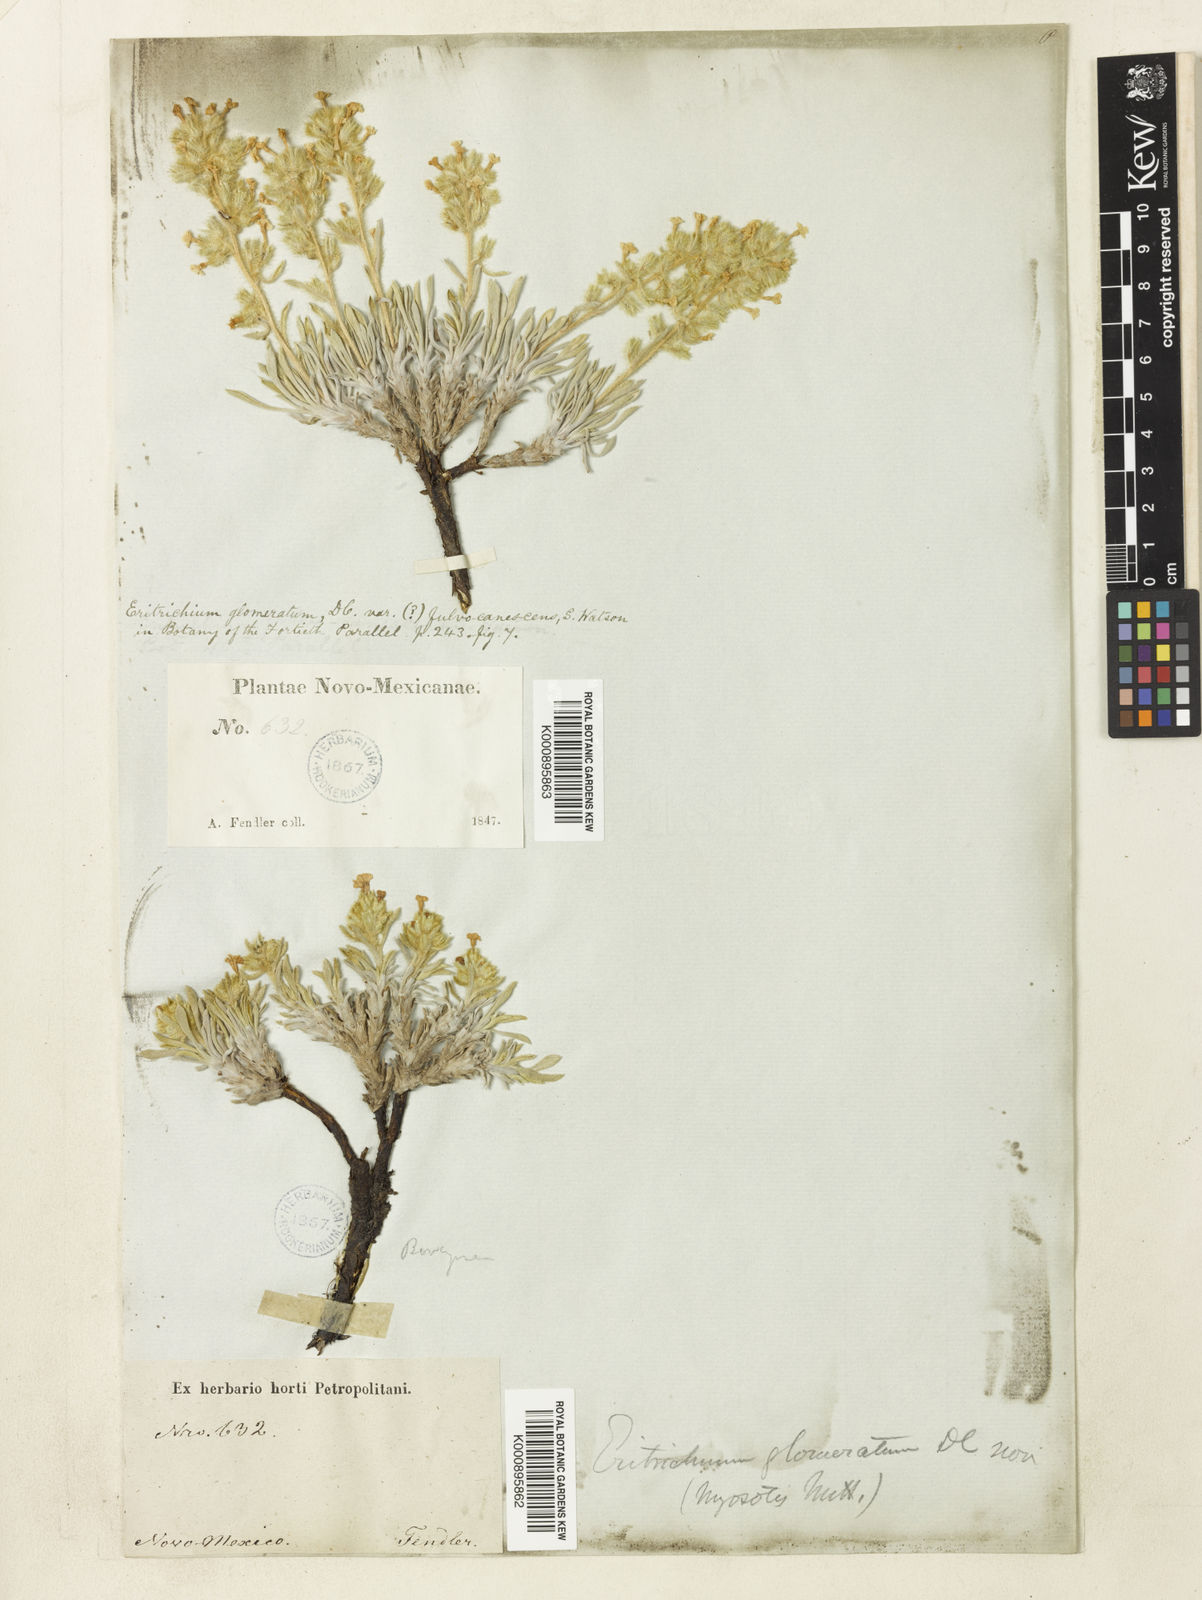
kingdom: Plantae
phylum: Tracheophyta
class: Magnoliopsida
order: Boraginales
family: Boraginaceae
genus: Oreocarya
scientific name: Oreocarya fulvocanescens
